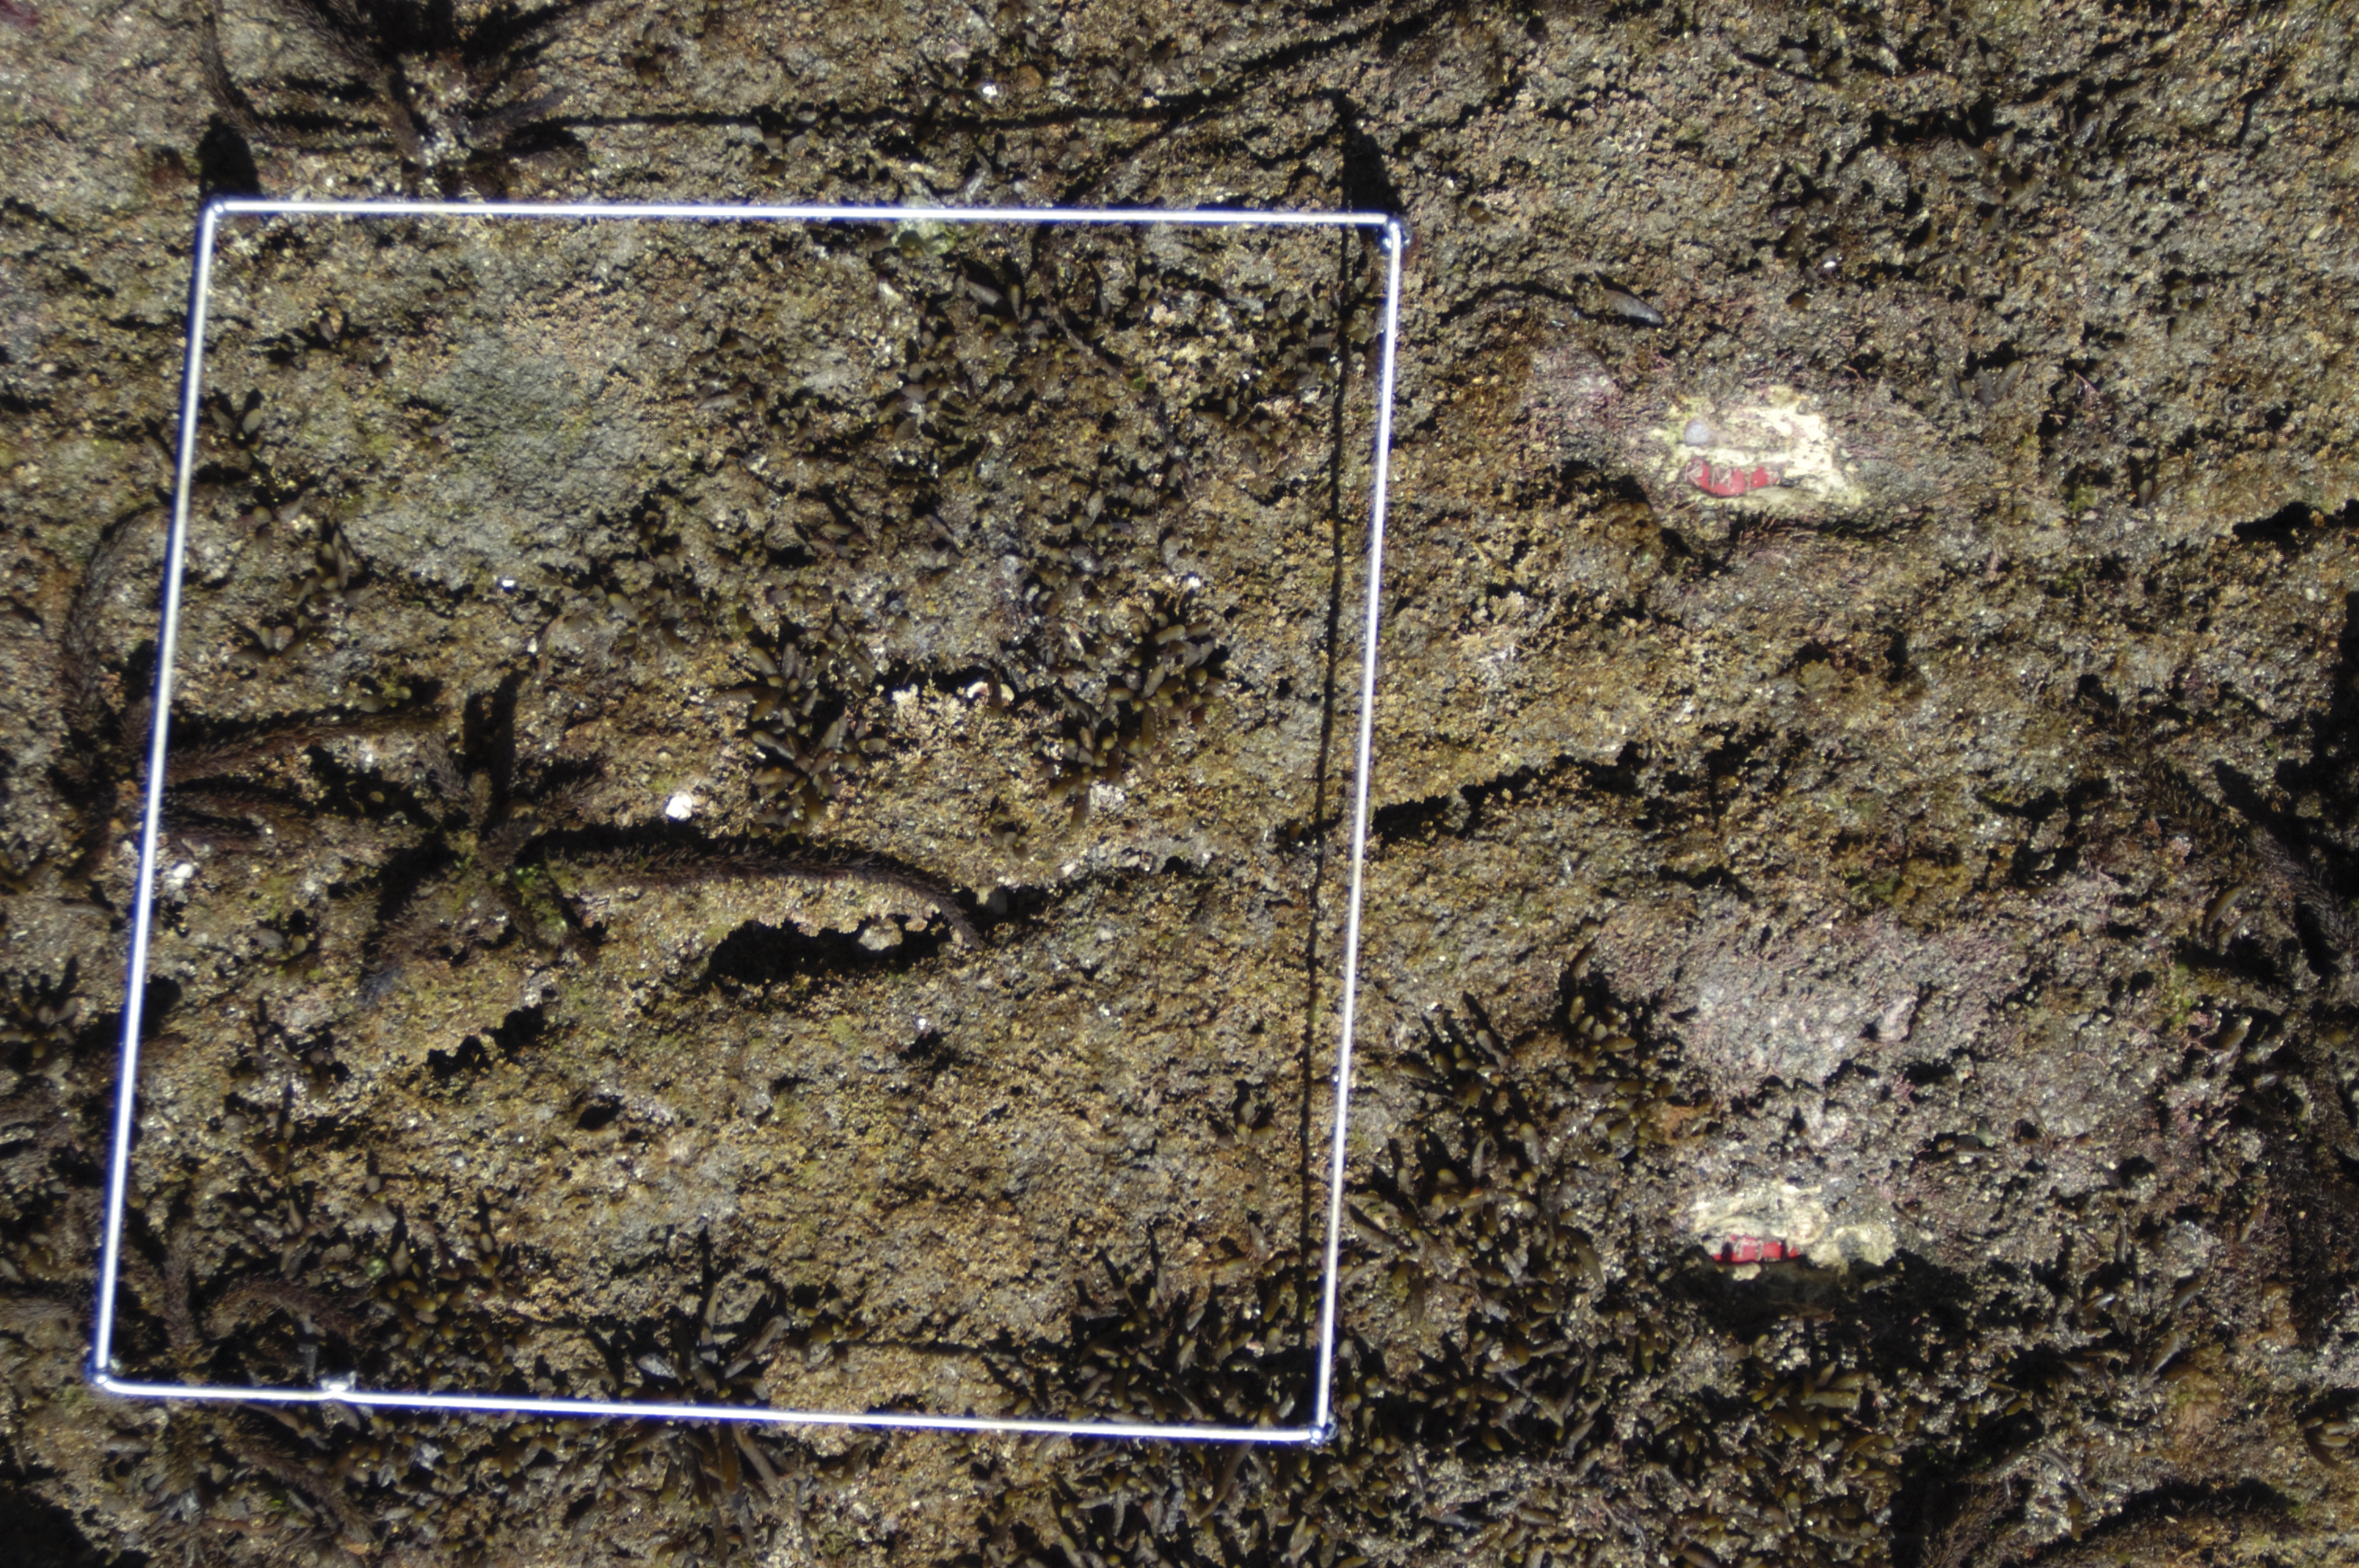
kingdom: Chromista
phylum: Ochrophyta
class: Phaeophyceae
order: Fucales
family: Sargassaceae
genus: Sargassum
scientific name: Sargassum fusiforme
